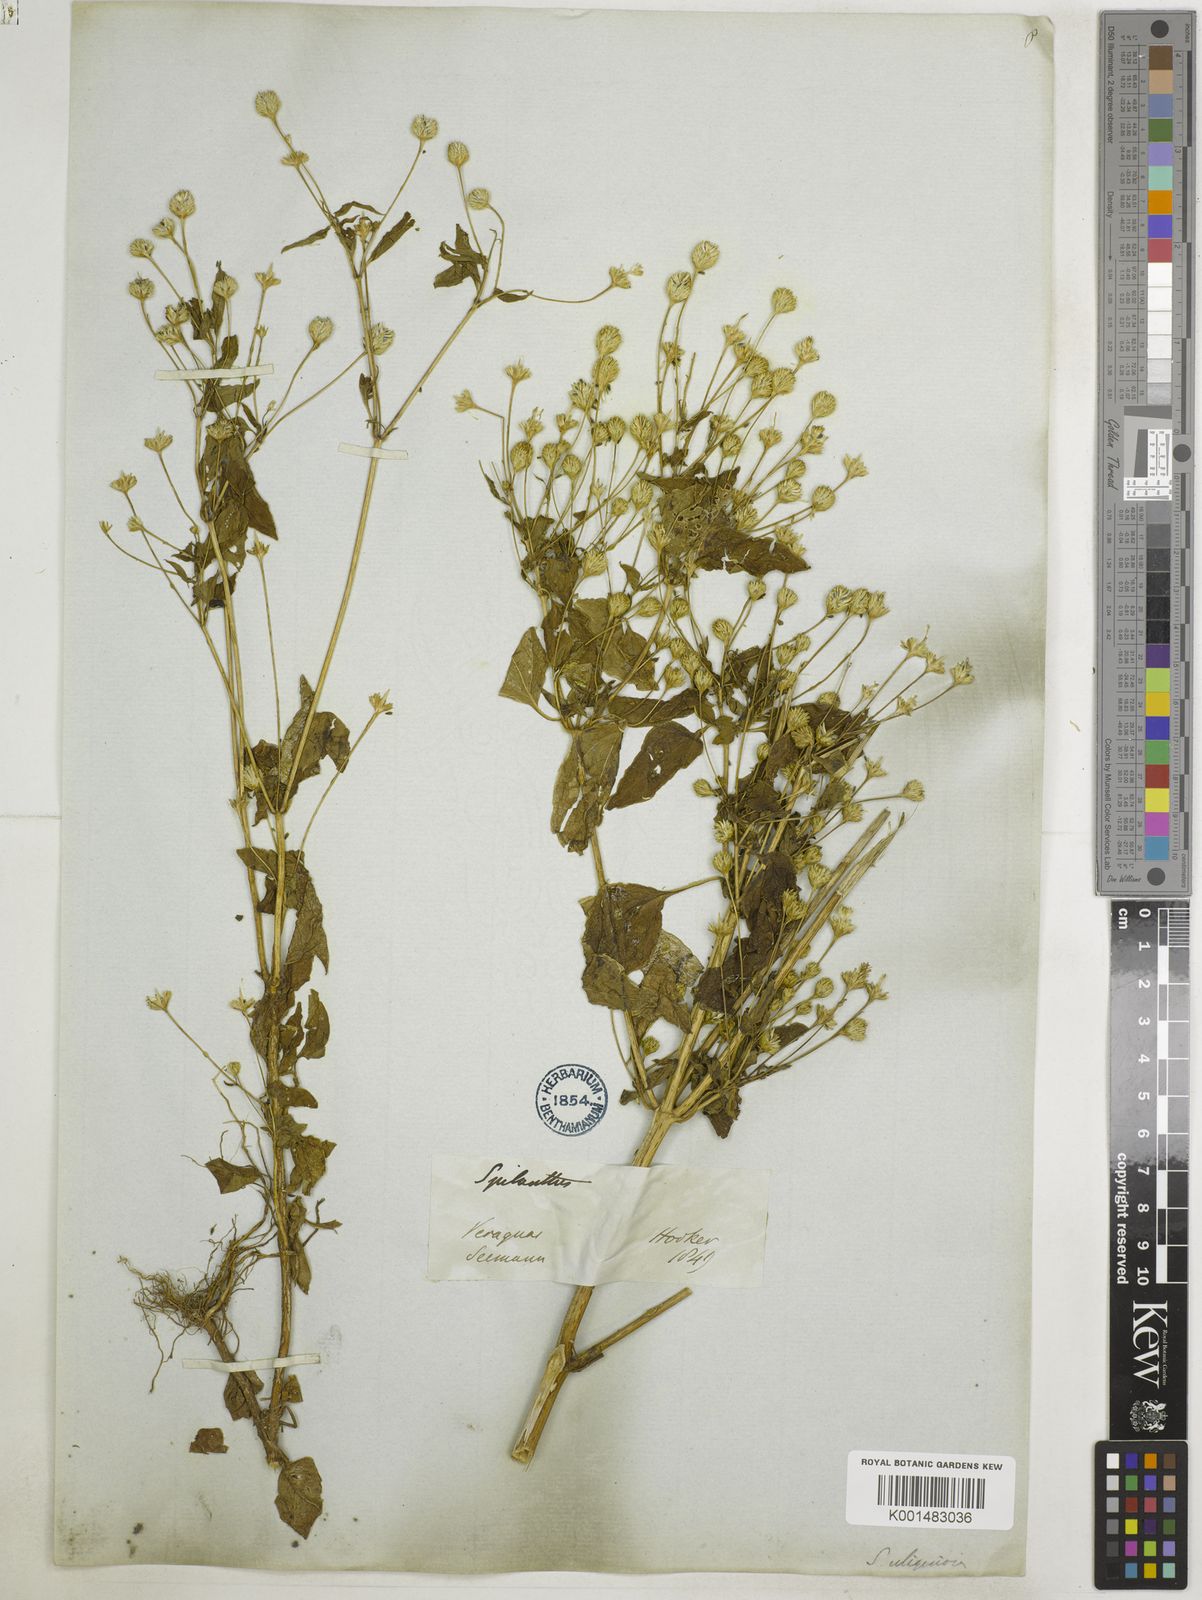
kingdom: Plantae
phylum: Tracheophyta
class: Magnoliopsida
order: Asterales
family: Asteraceae
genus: Acmella
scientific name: Acmella brachyglossa
